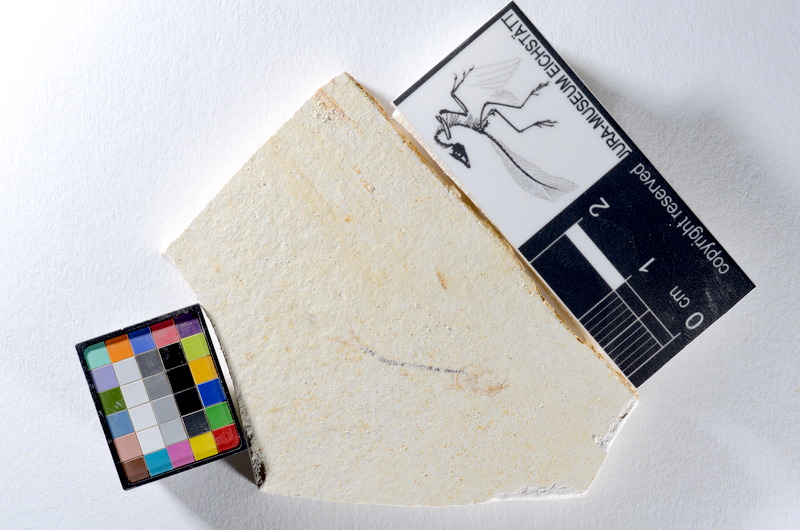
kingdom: Animalia
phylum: Chordata
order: Salmoniformes
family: Orthogonikleithridae
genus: Orthogonikleithrus
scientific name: Orthogonikleithrus hoelli
